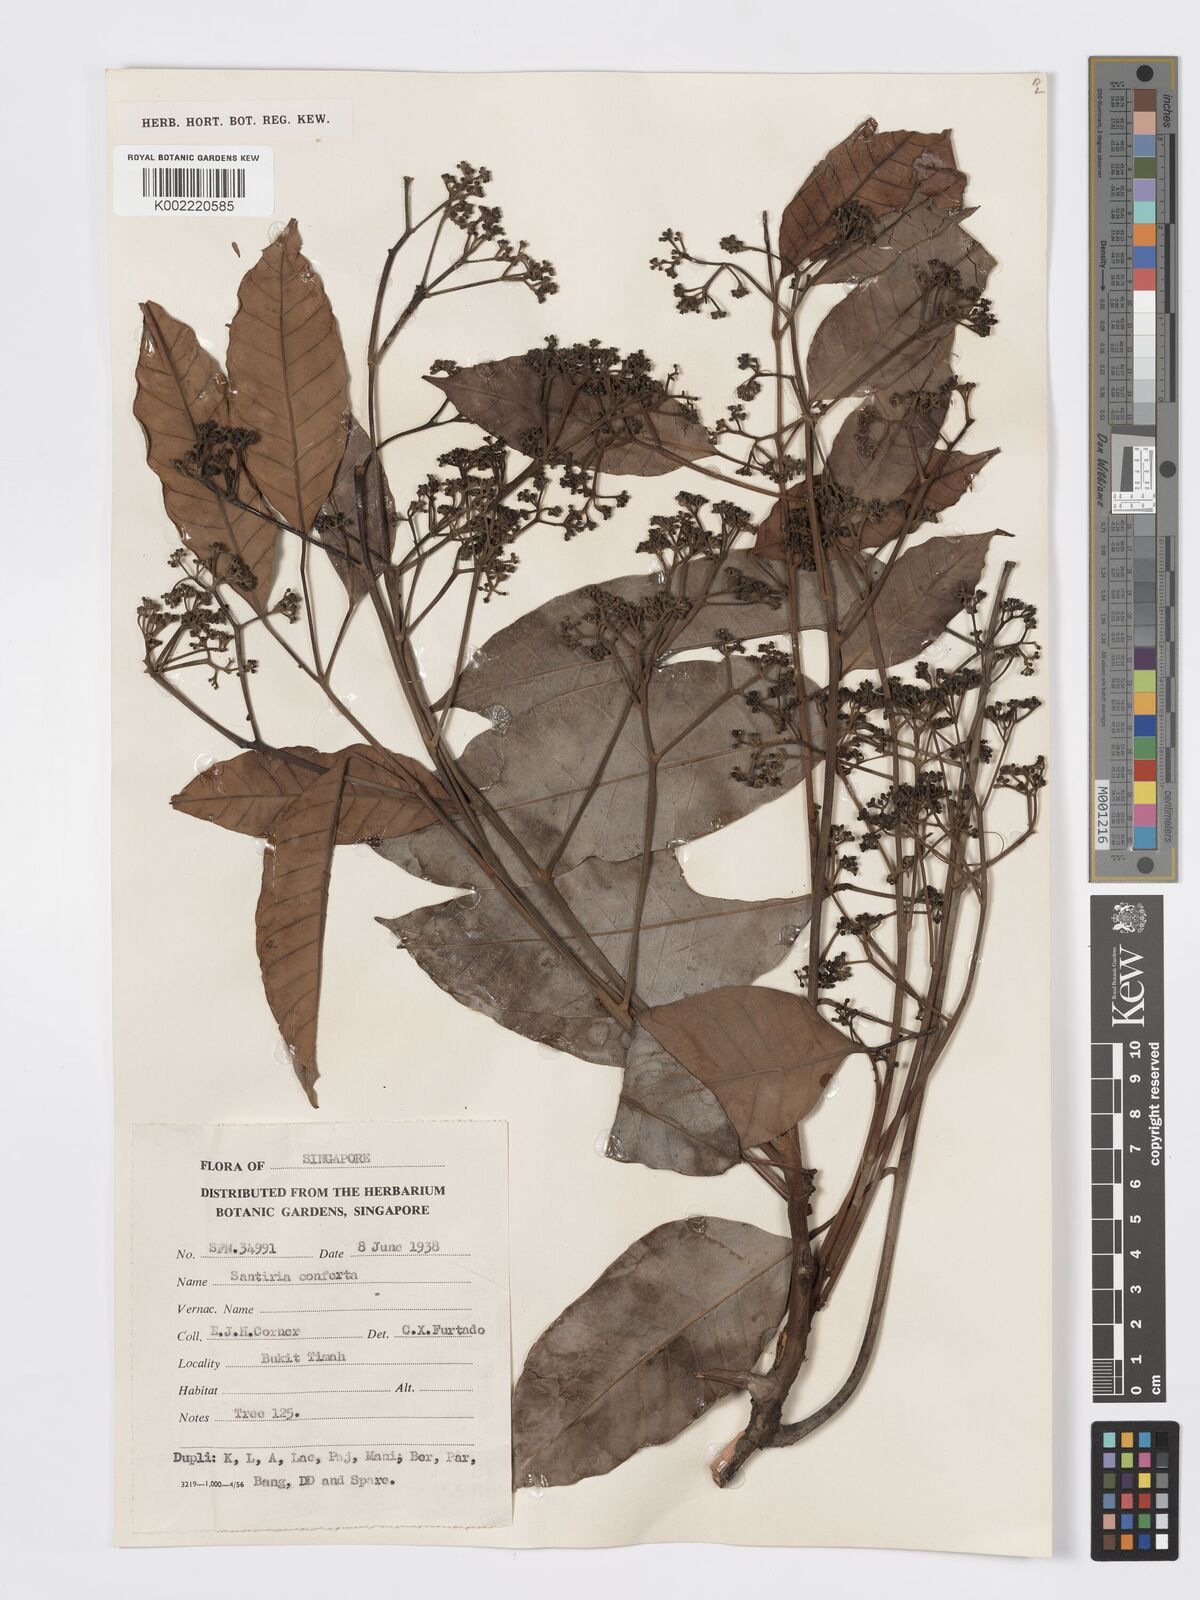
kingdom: Plantae
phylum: Tracheophyta
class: Magnoliopsida
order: Sapindales
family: Burseraceae
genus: Santiria
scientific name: Santiria conferta
